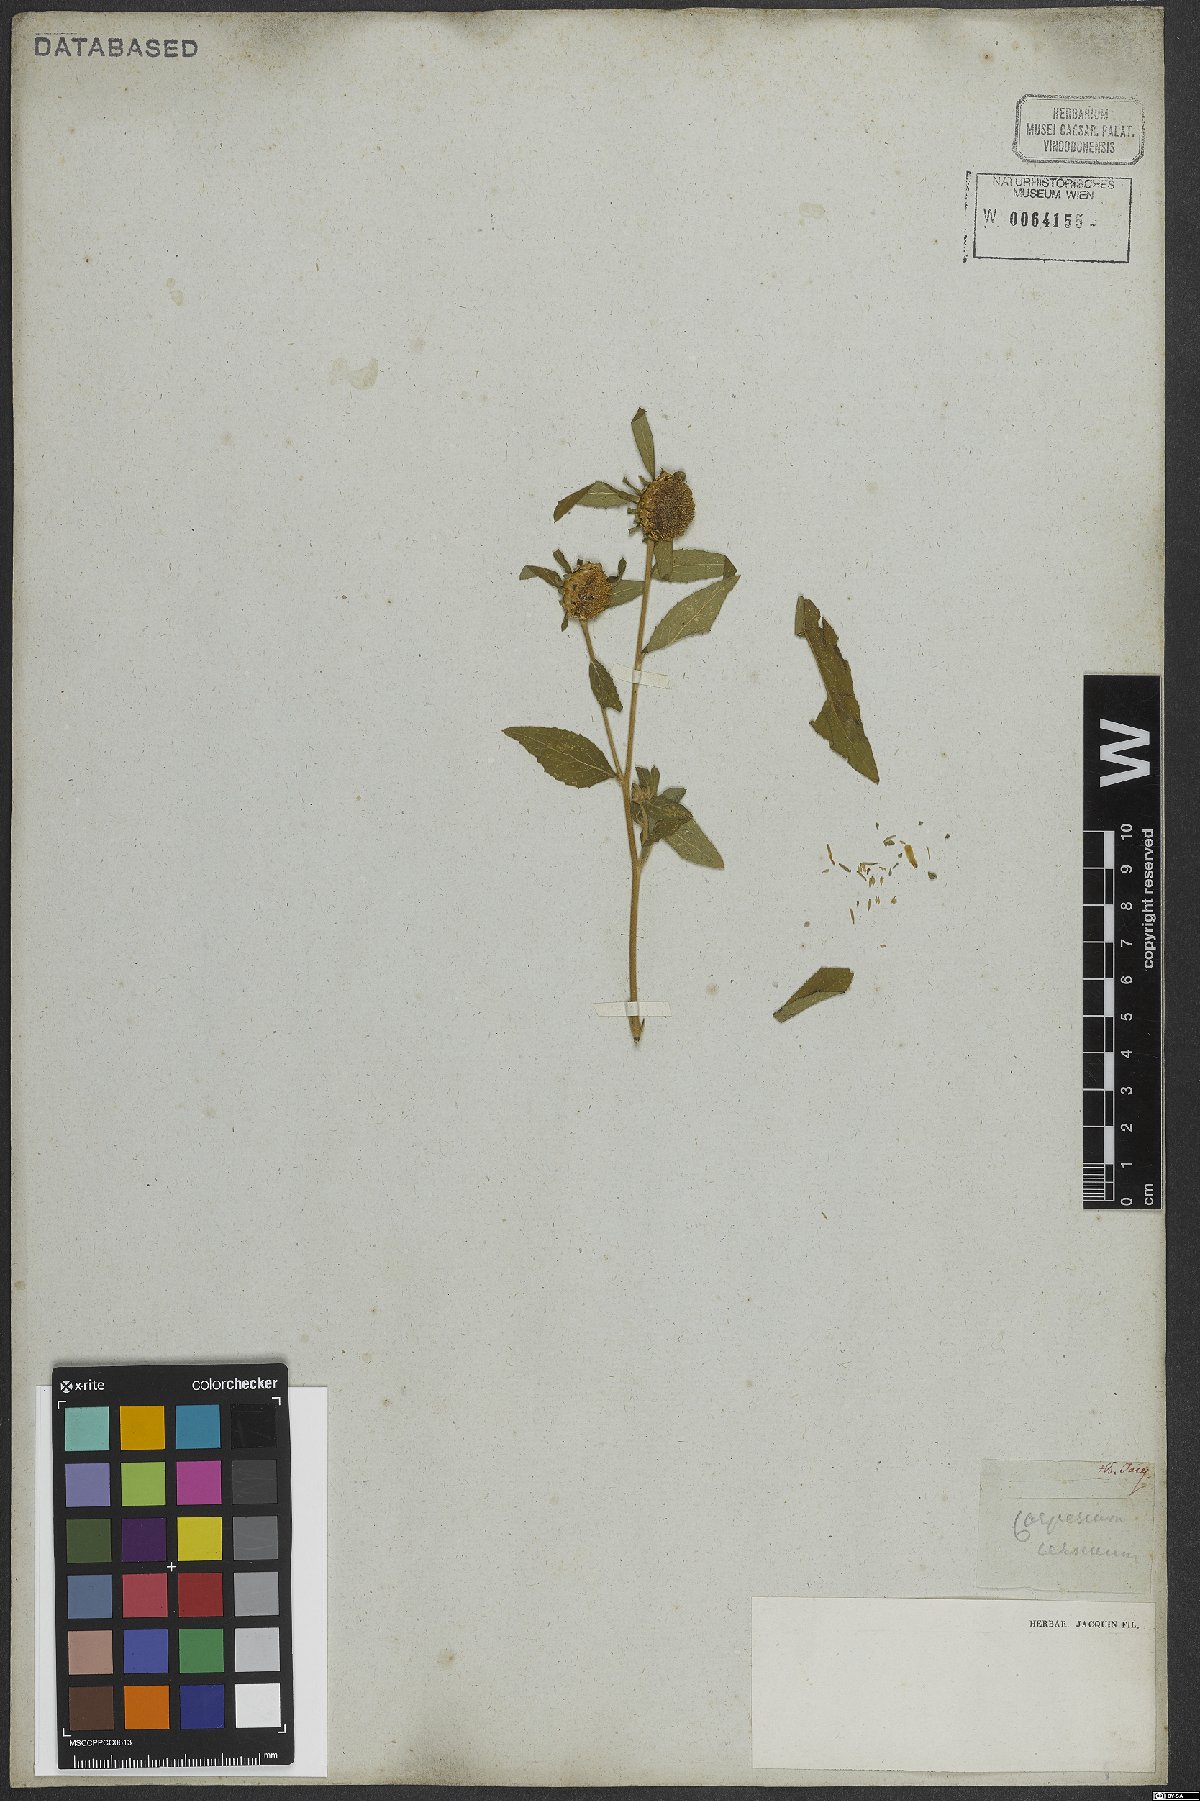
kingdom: Plantae
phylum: Tracheophyta
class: Magnoliopsida
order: Asterales
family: Asteraceae
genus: Carpesium
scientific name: Carpesium cernuum
